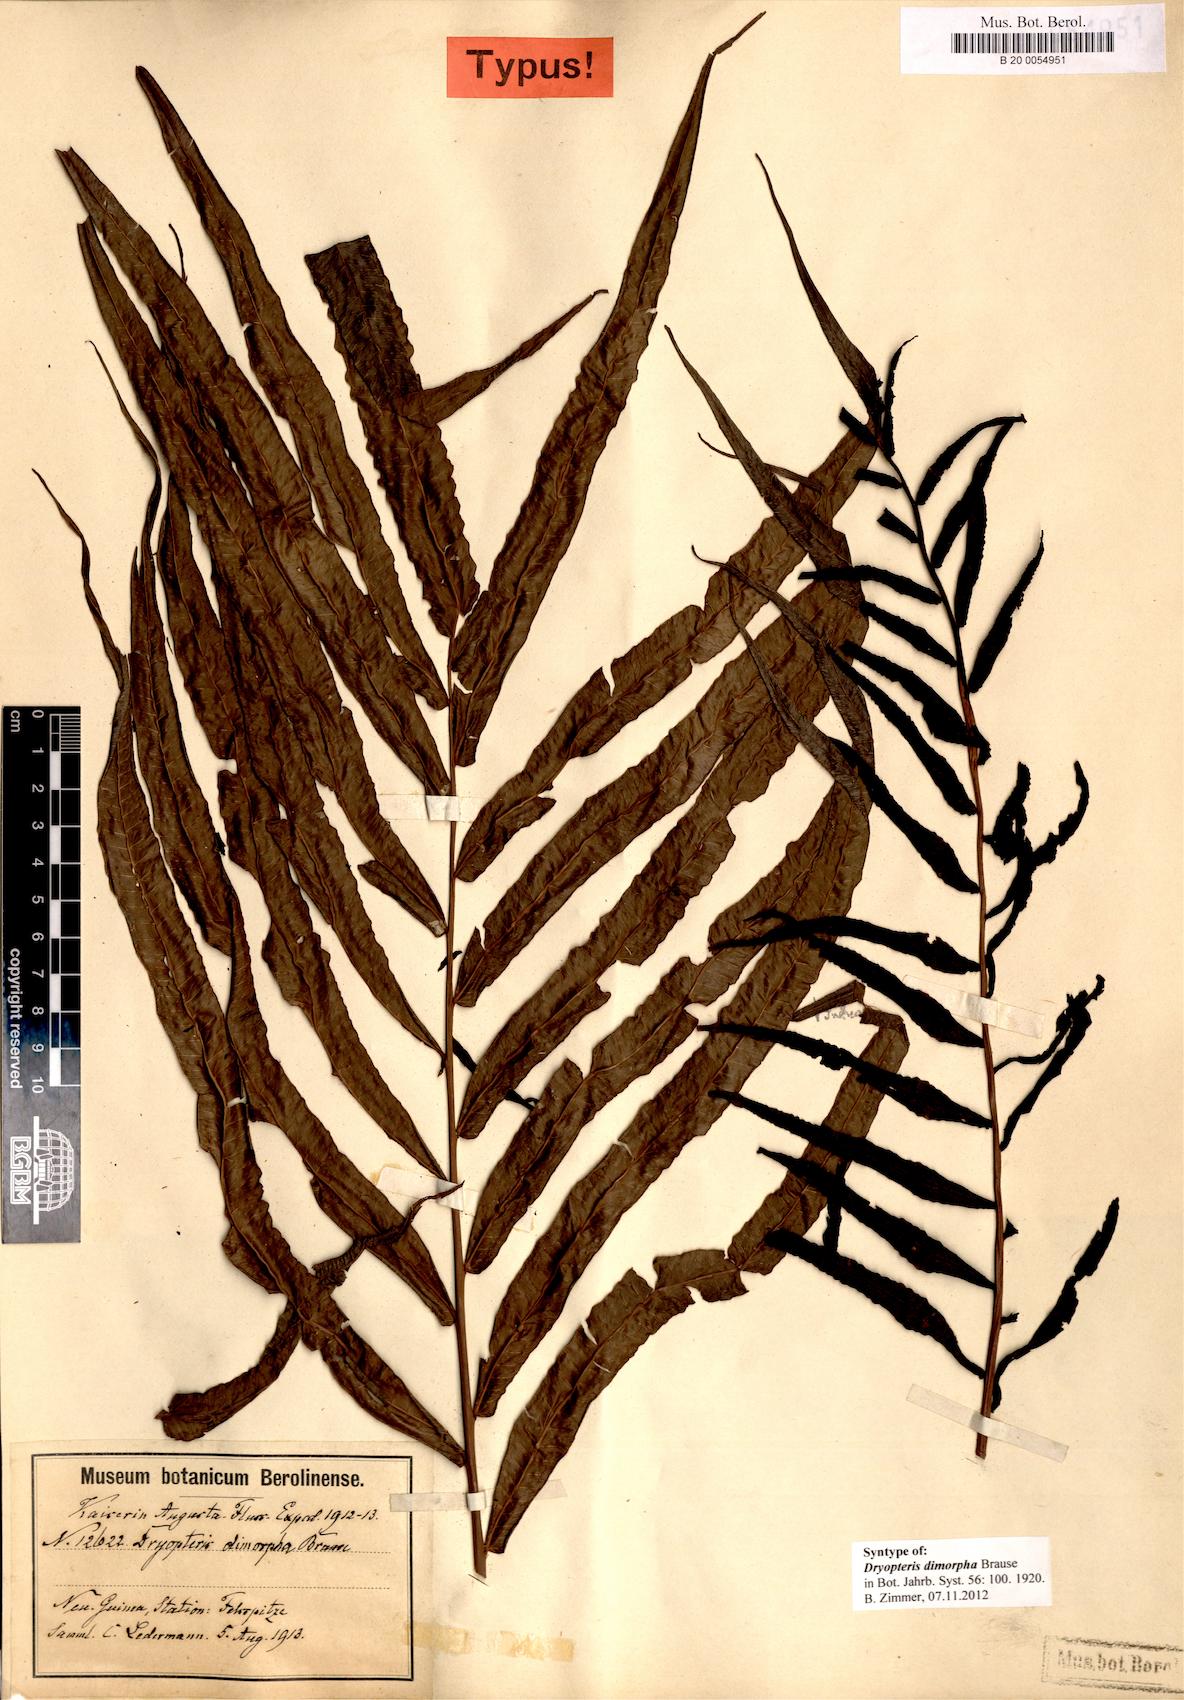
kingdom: Plantae
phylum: Tracheophyta
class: Polypodiopsida
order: Polypodiales
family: Thelypteridaceae
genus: Sphaerostephanos
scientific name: Sphaerostephanos dimorphus
